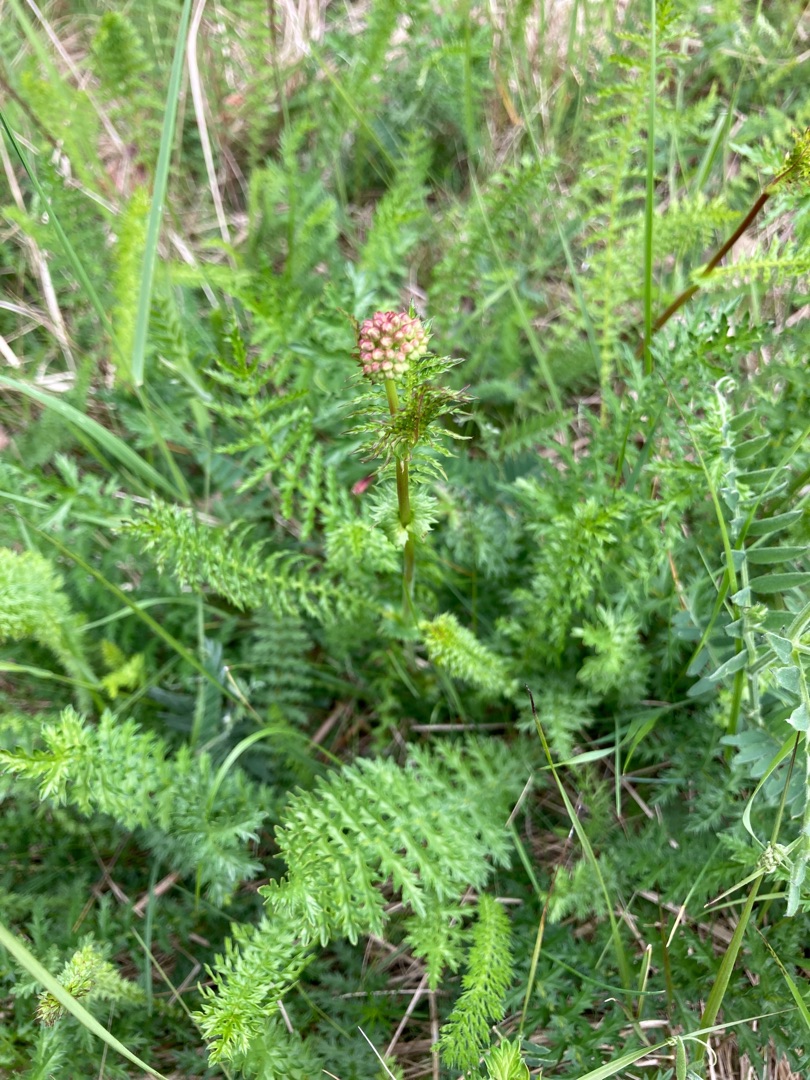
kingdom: Plantae
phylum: Tracheophyta
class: Magnoliopsida
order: Rosales
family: Rosaceae
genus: Filipendula
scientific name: Filipendula vulgaris
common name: Knoldet mjødurt
